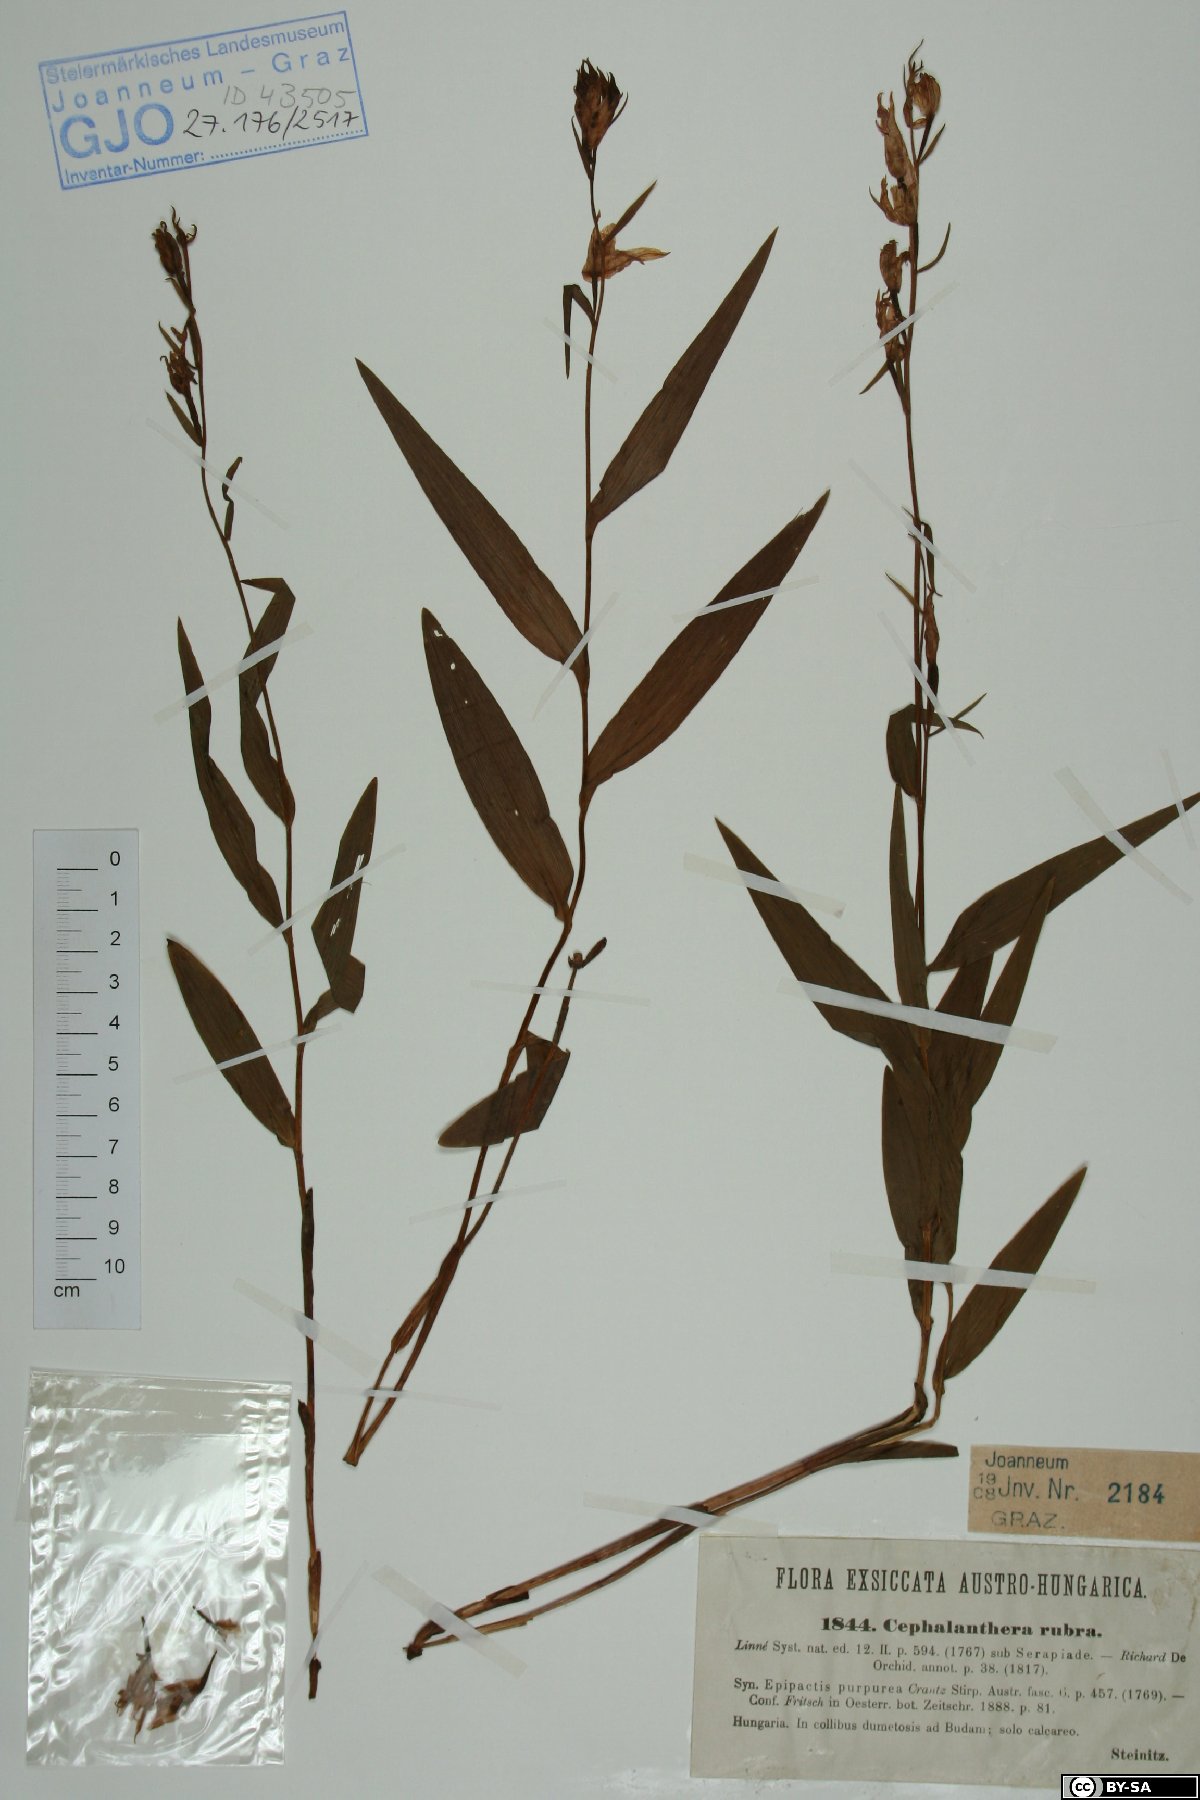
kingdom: Plantae
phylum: Tracheophyta
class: Liliopsida
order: Asparagales
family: Orchidaceae
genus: Cephalanthera
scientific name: Cephalanthera rubra
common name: Red helleborine
